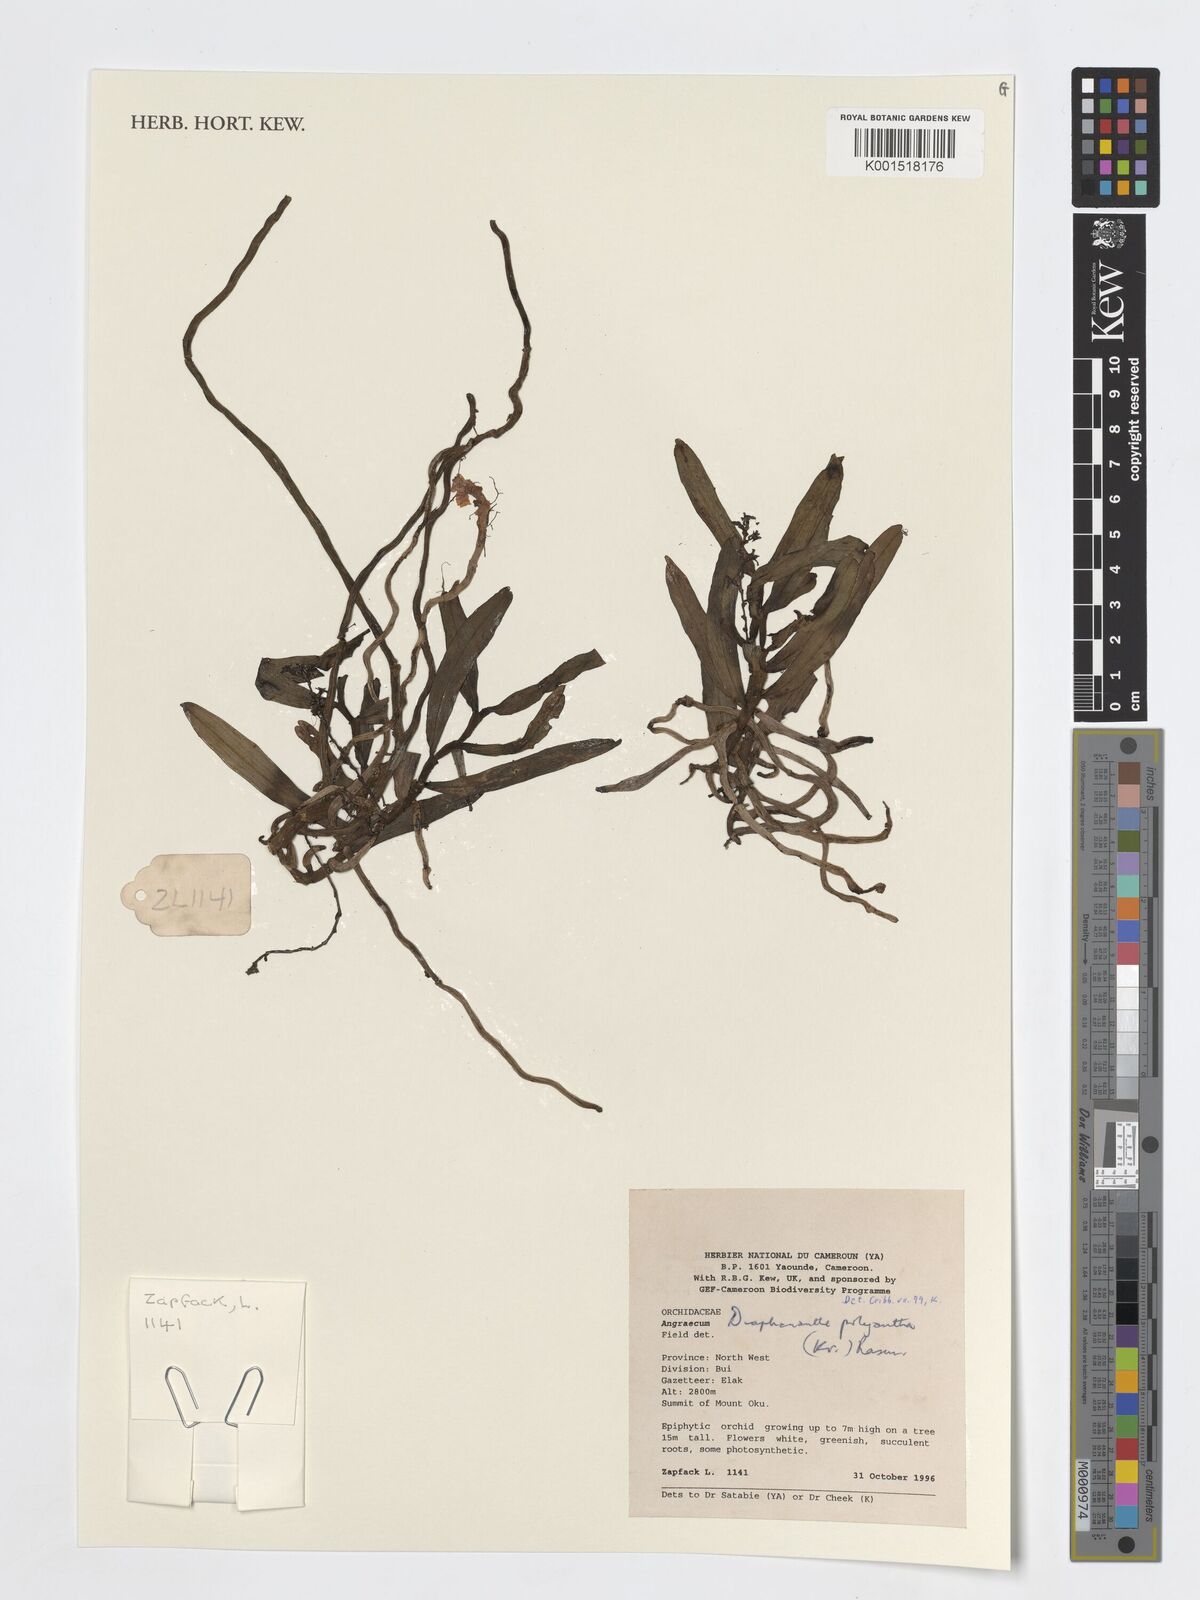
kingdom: Plantae
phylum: Tracheophyta
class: Liliopsida
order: Asparagales
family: Orchidaceae
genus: Rhipidoglossum
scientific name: Rhipidoglossum polyanthum
